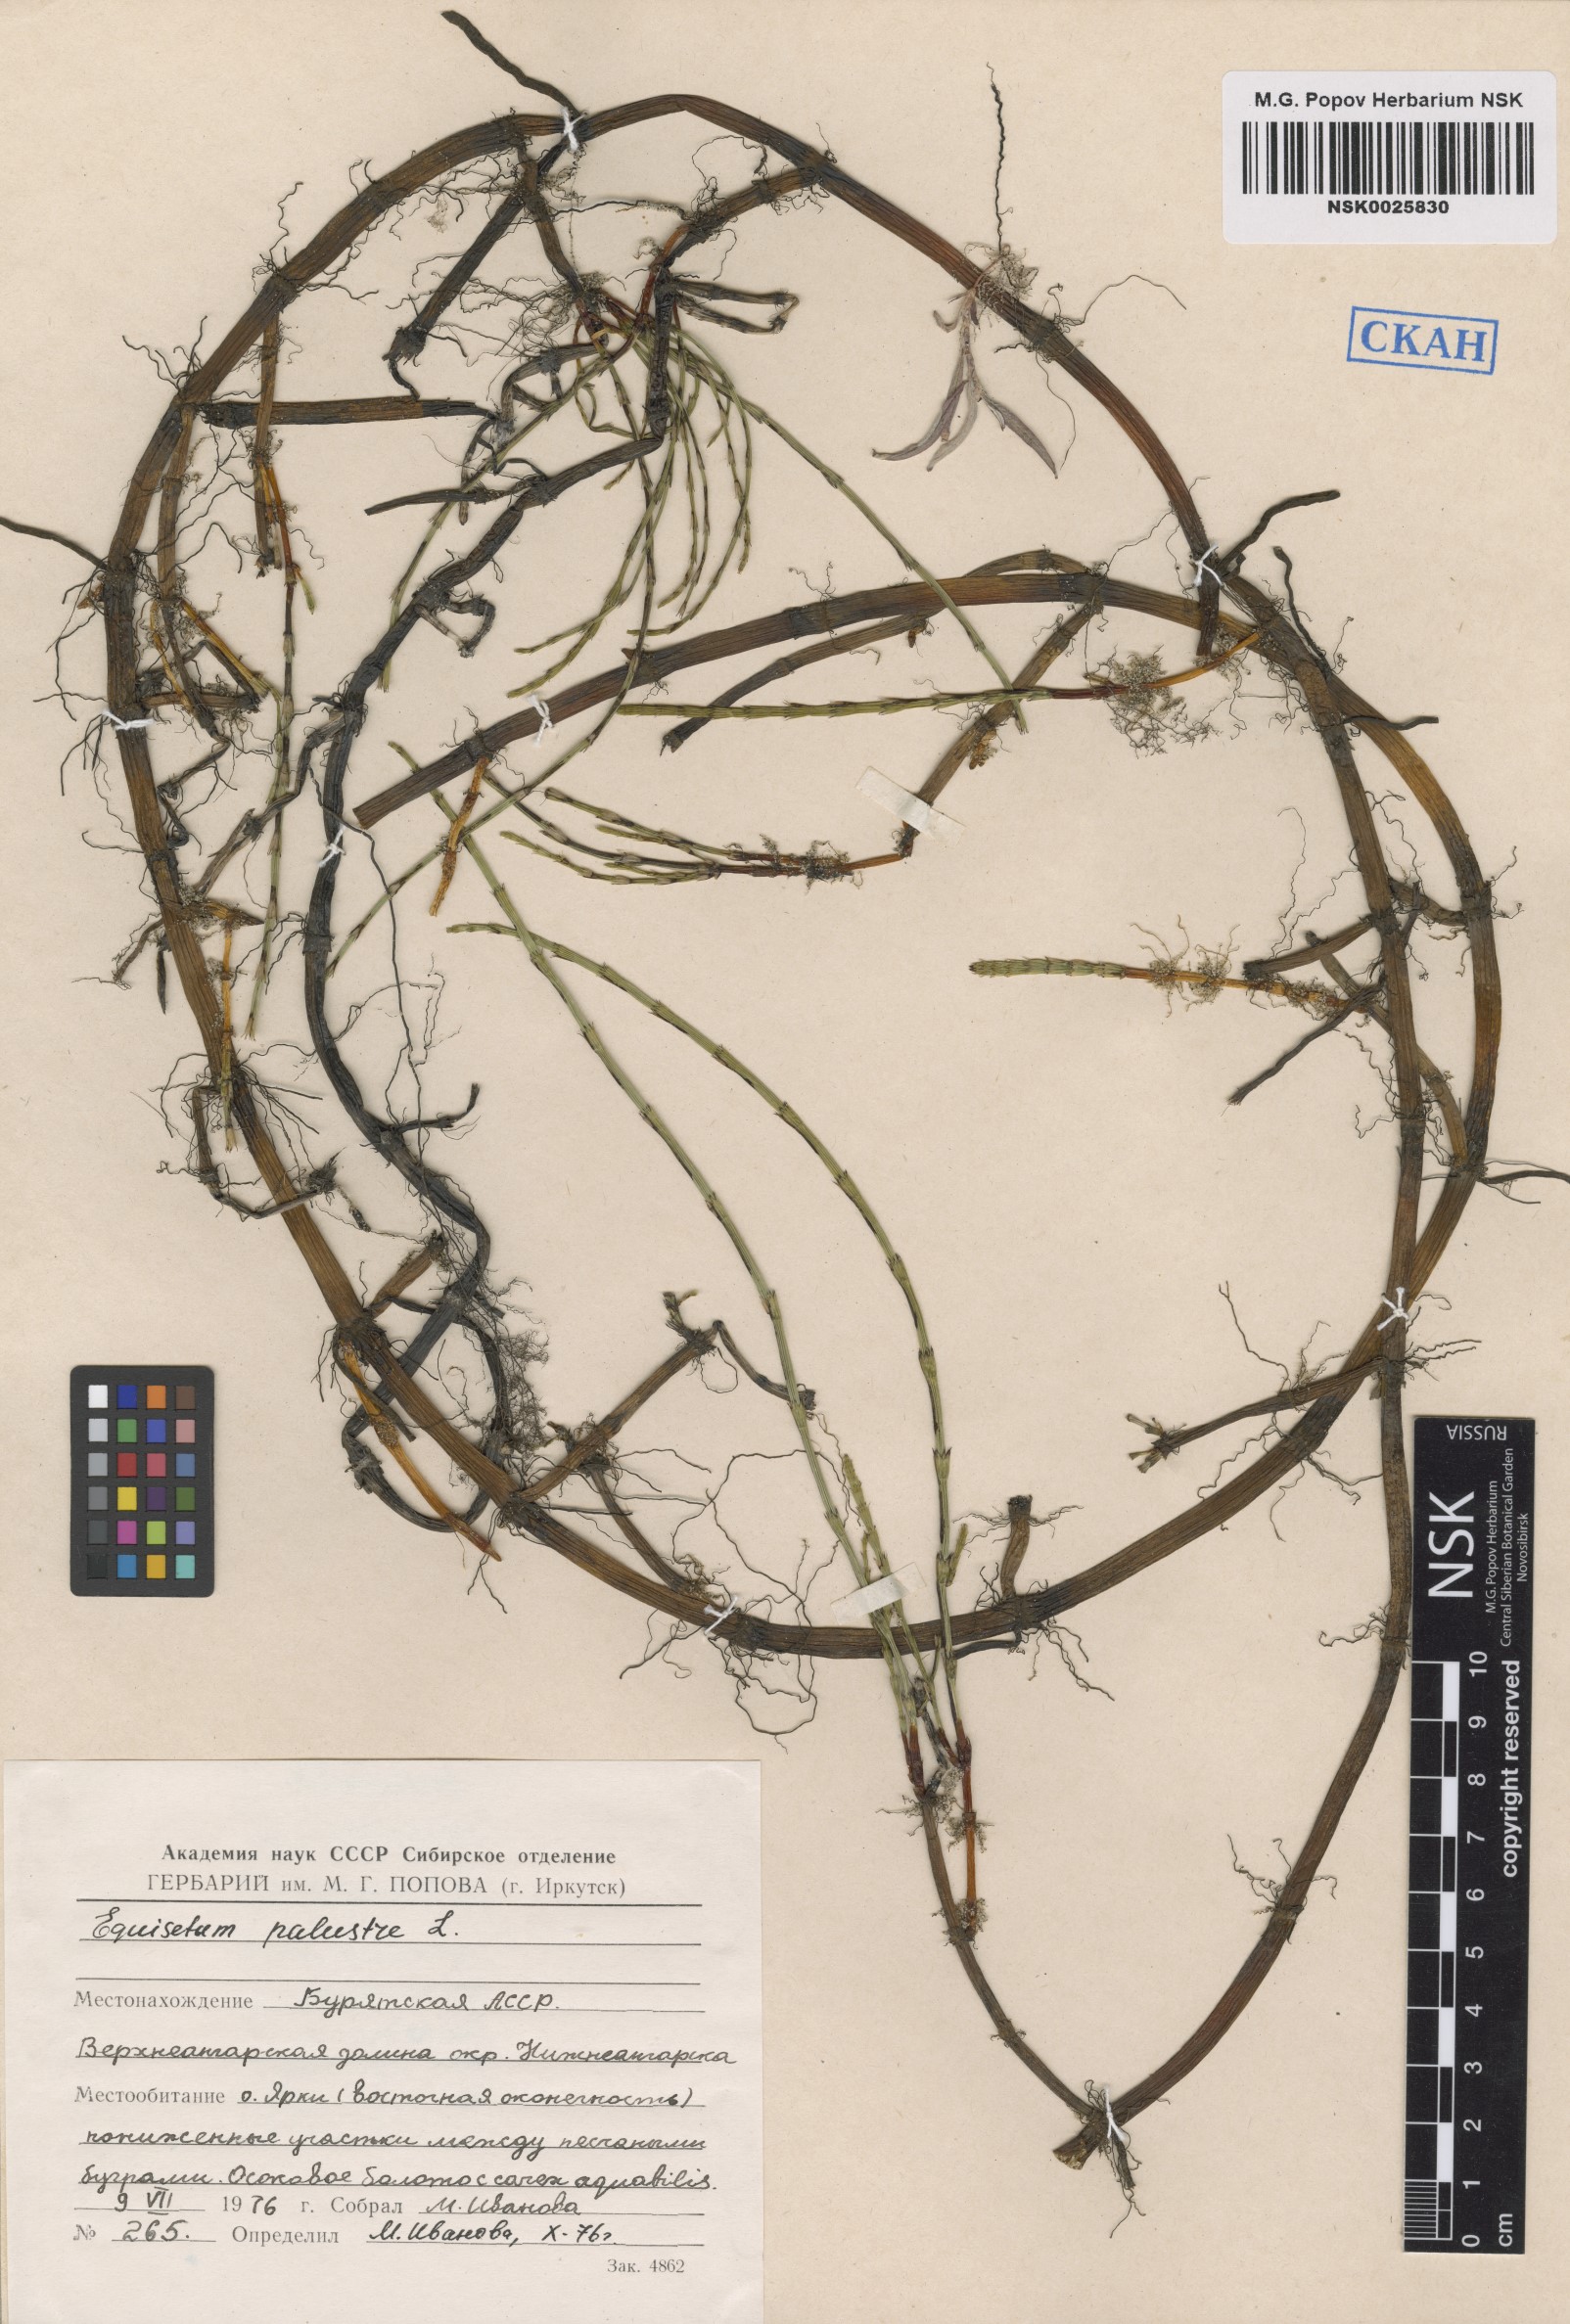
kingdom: Plantae
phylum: Tracheophyta
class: Polypodiopsida
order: Equisetales
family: Equisetaceae
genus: Equisetum
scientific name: Equisetum palustre
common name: Marsh horsetail
